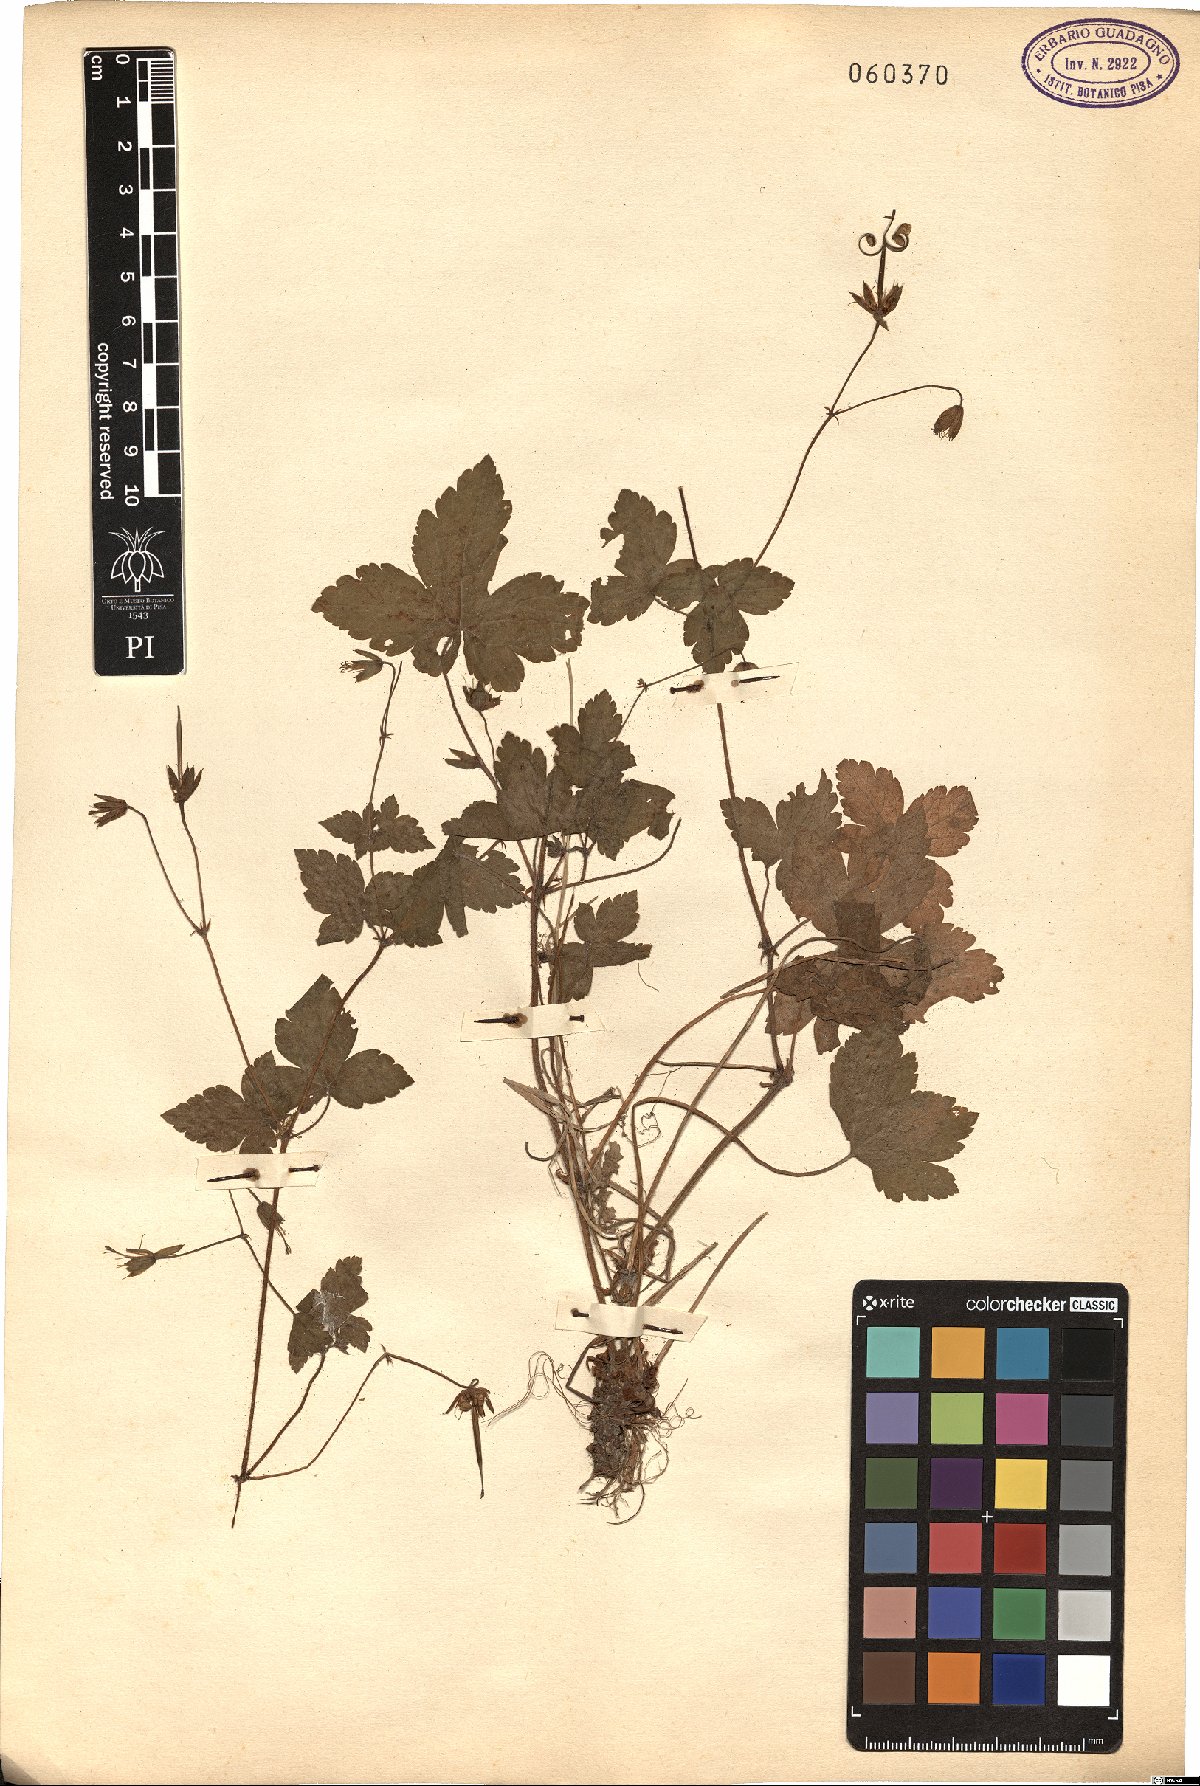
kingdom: Plantae
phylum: Tracheophyta
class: Magnoliopsida
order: Geraniales
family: Geraniaceae
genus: Geranium
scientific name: Geranium versicolor
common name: Pencilled crane's-bill
